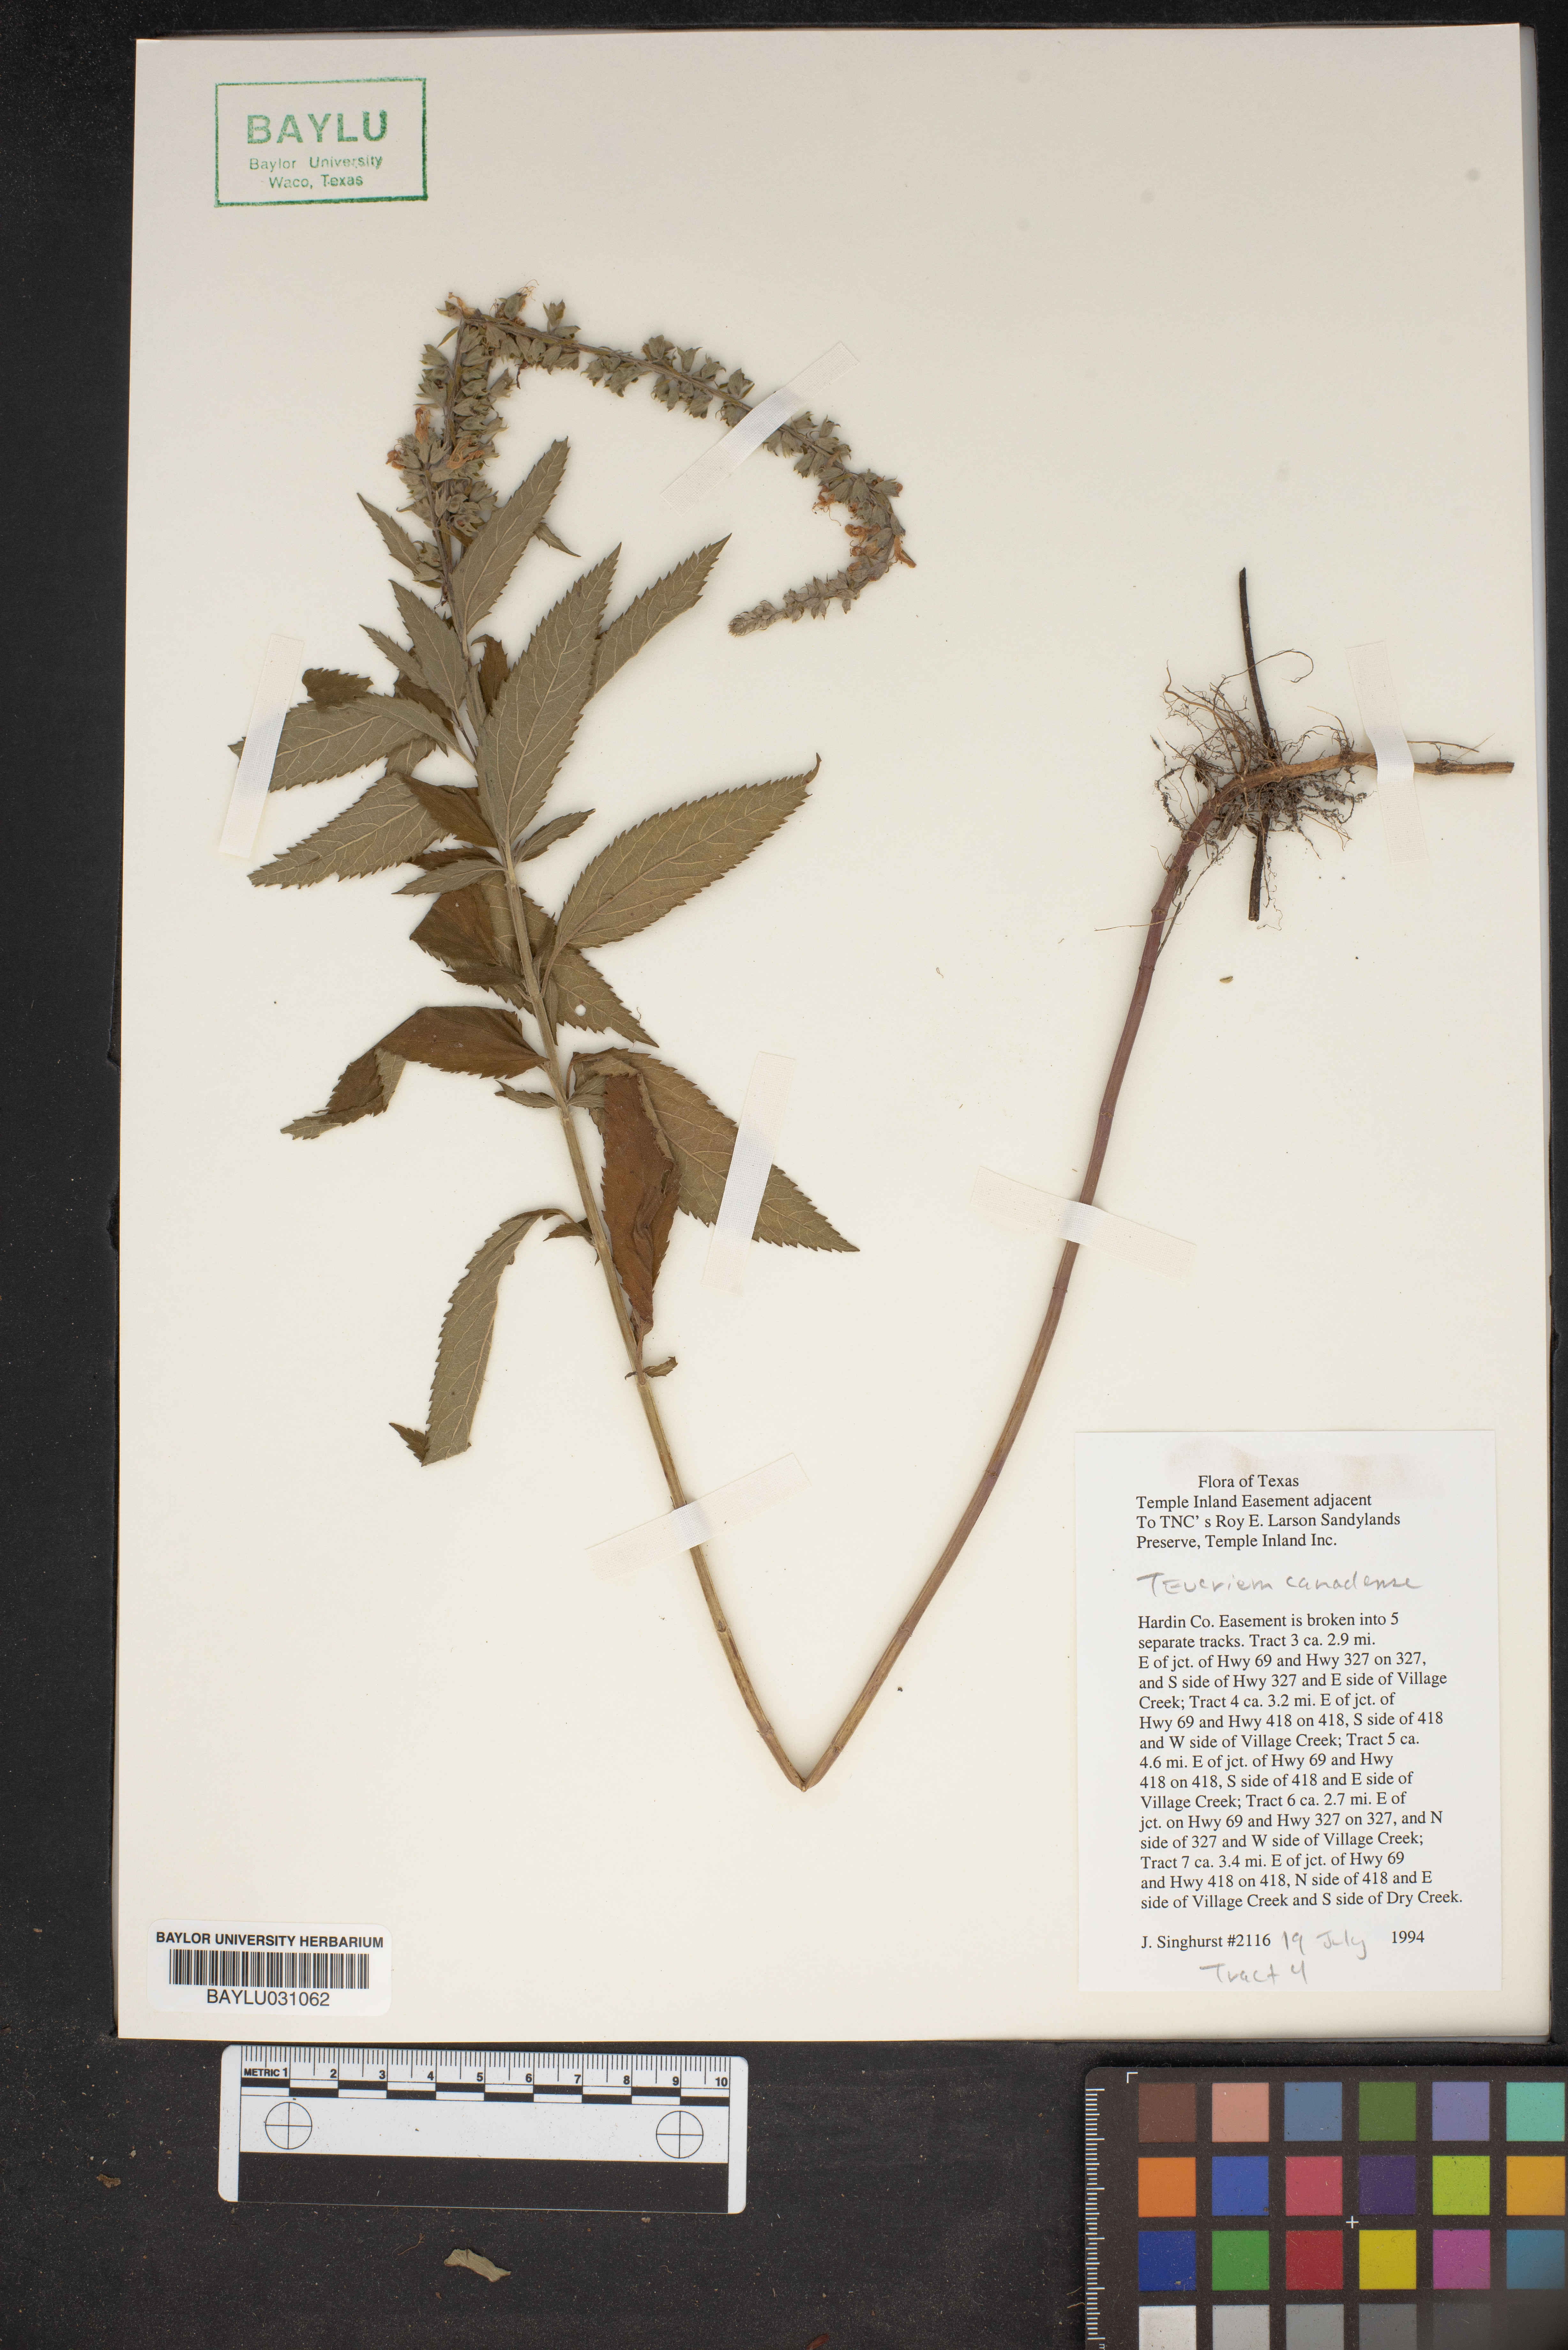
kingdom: Plantae
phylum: Tracheophyta
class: Magnoliopsida
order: Lamiales
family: Lamiaceae
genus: Teucrium
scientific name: Teucrium canadense
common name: American germander
